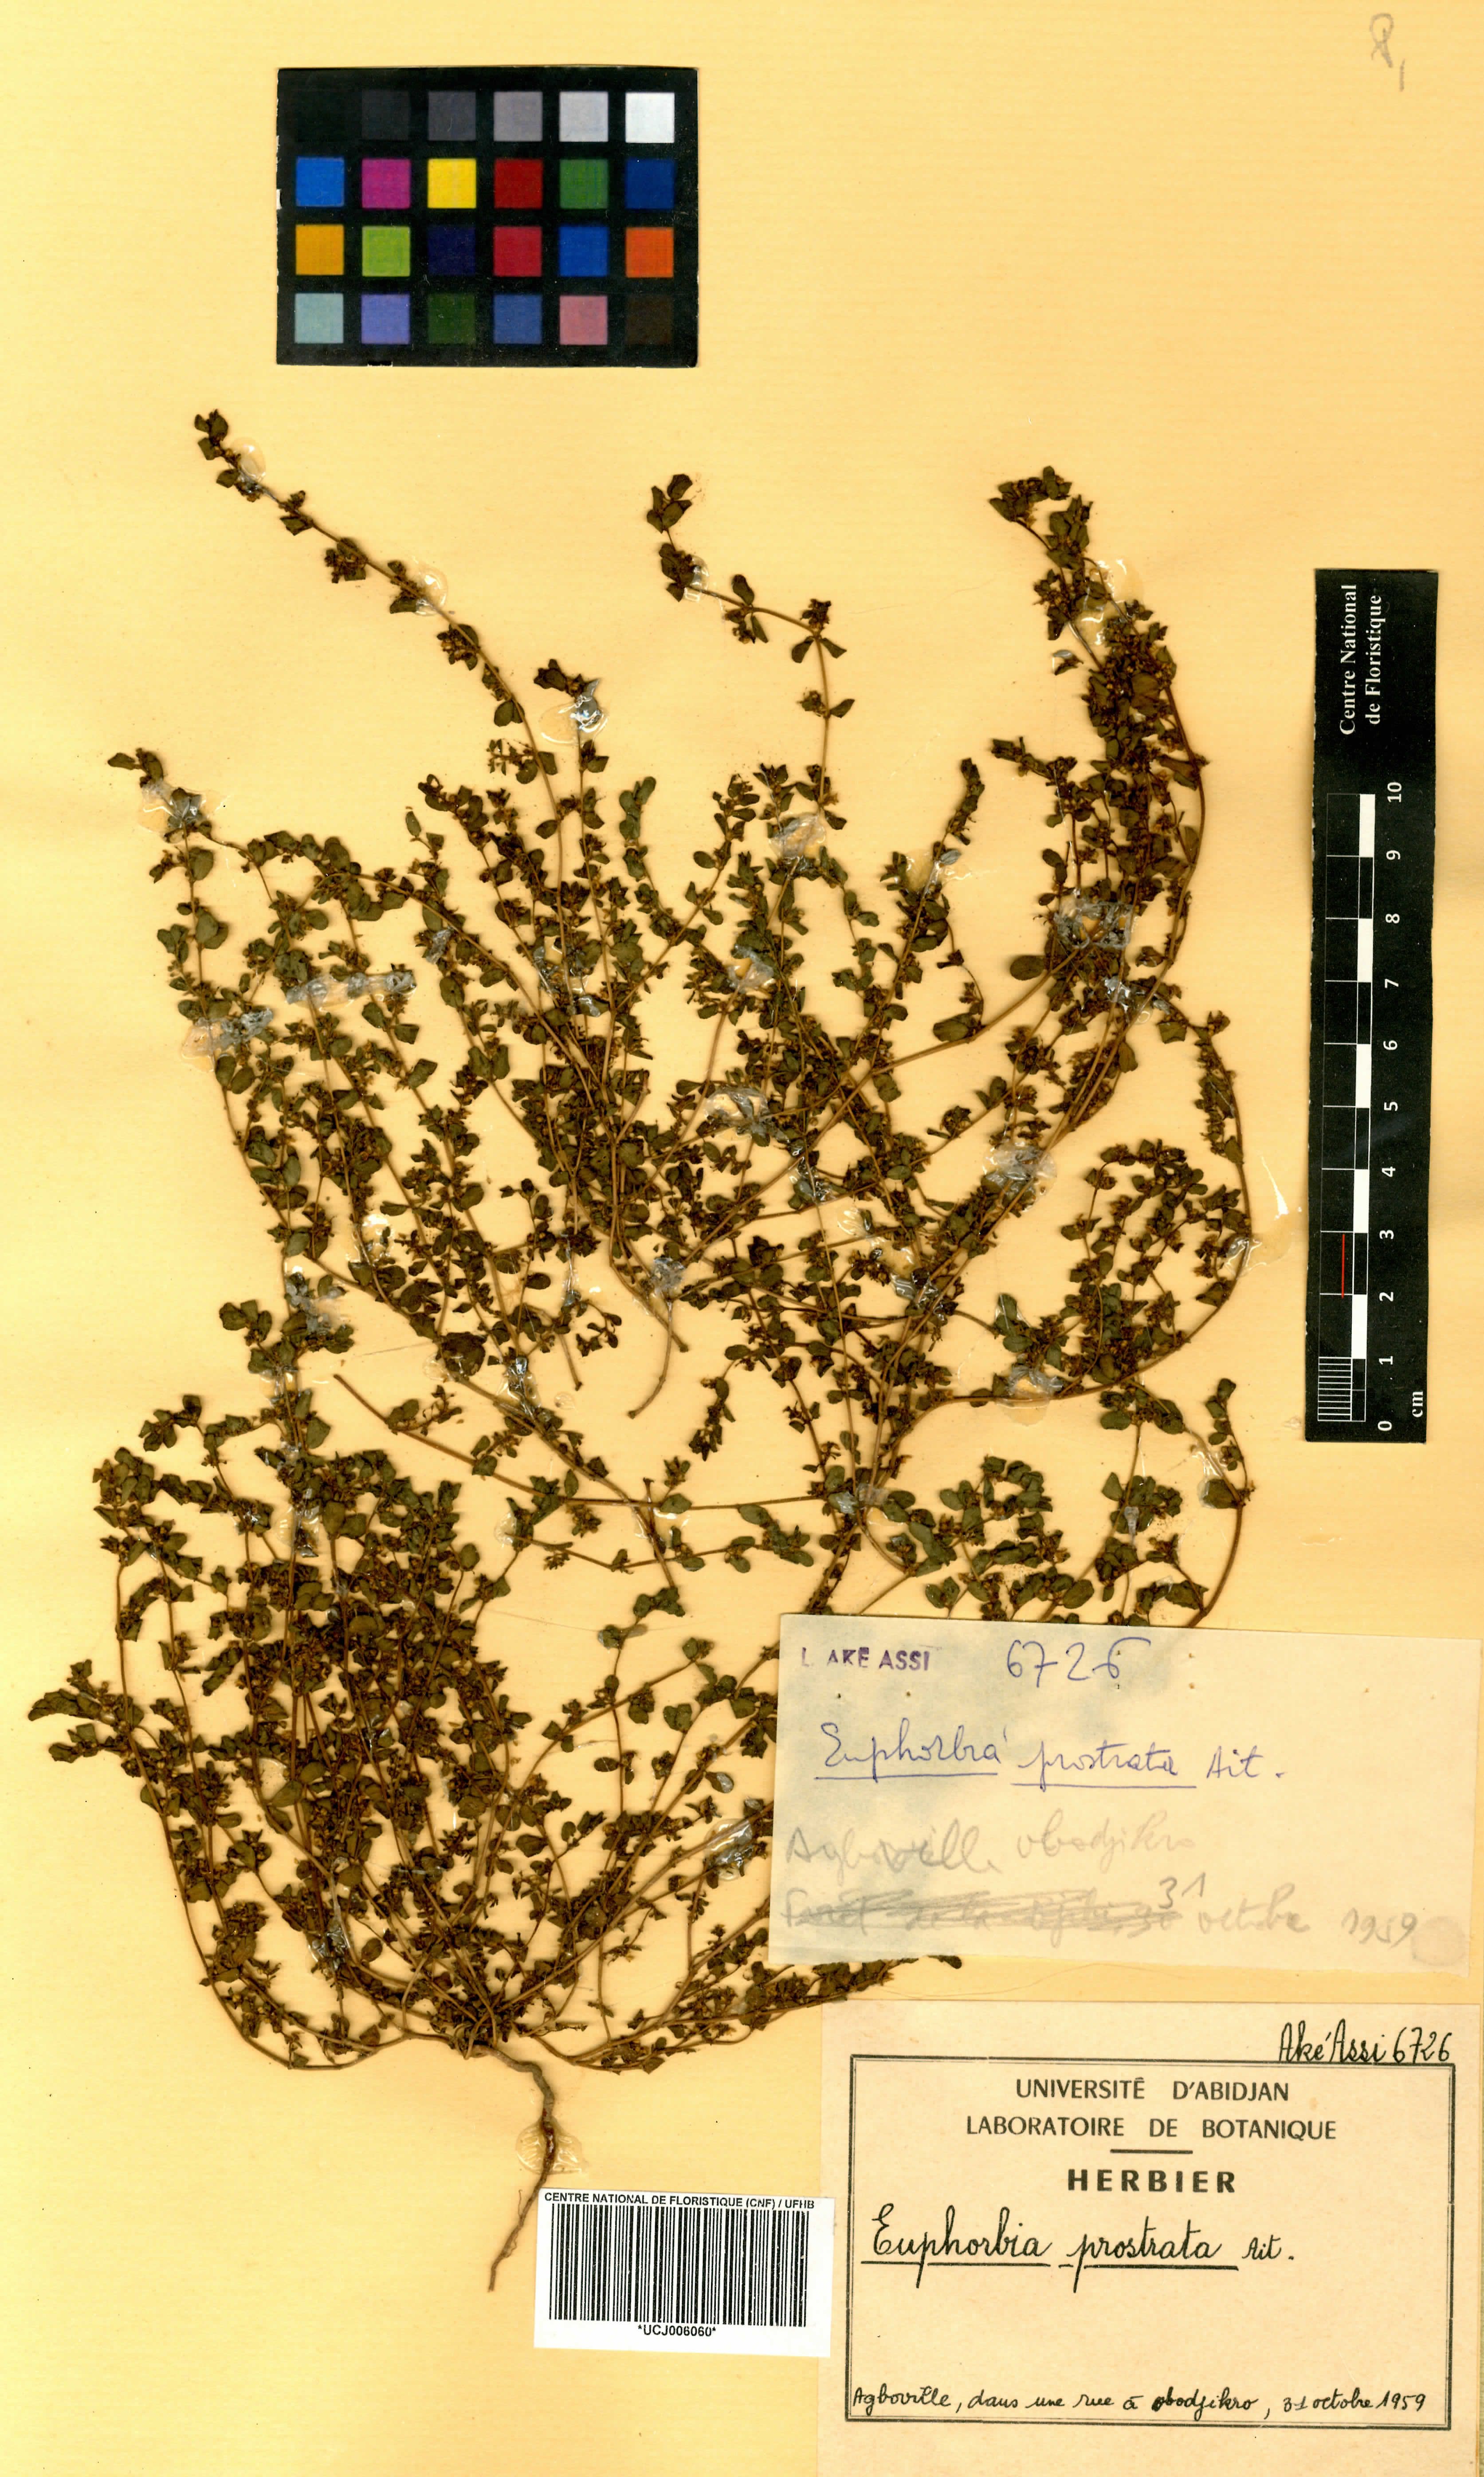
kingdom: Plantae
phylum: Tracheophyta
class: Magnoliopsida
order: Malpighiales
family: Euphorbiaceae
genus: Euphorbia
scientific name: Euphorbia prostrata
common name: Prostrate sandmat
